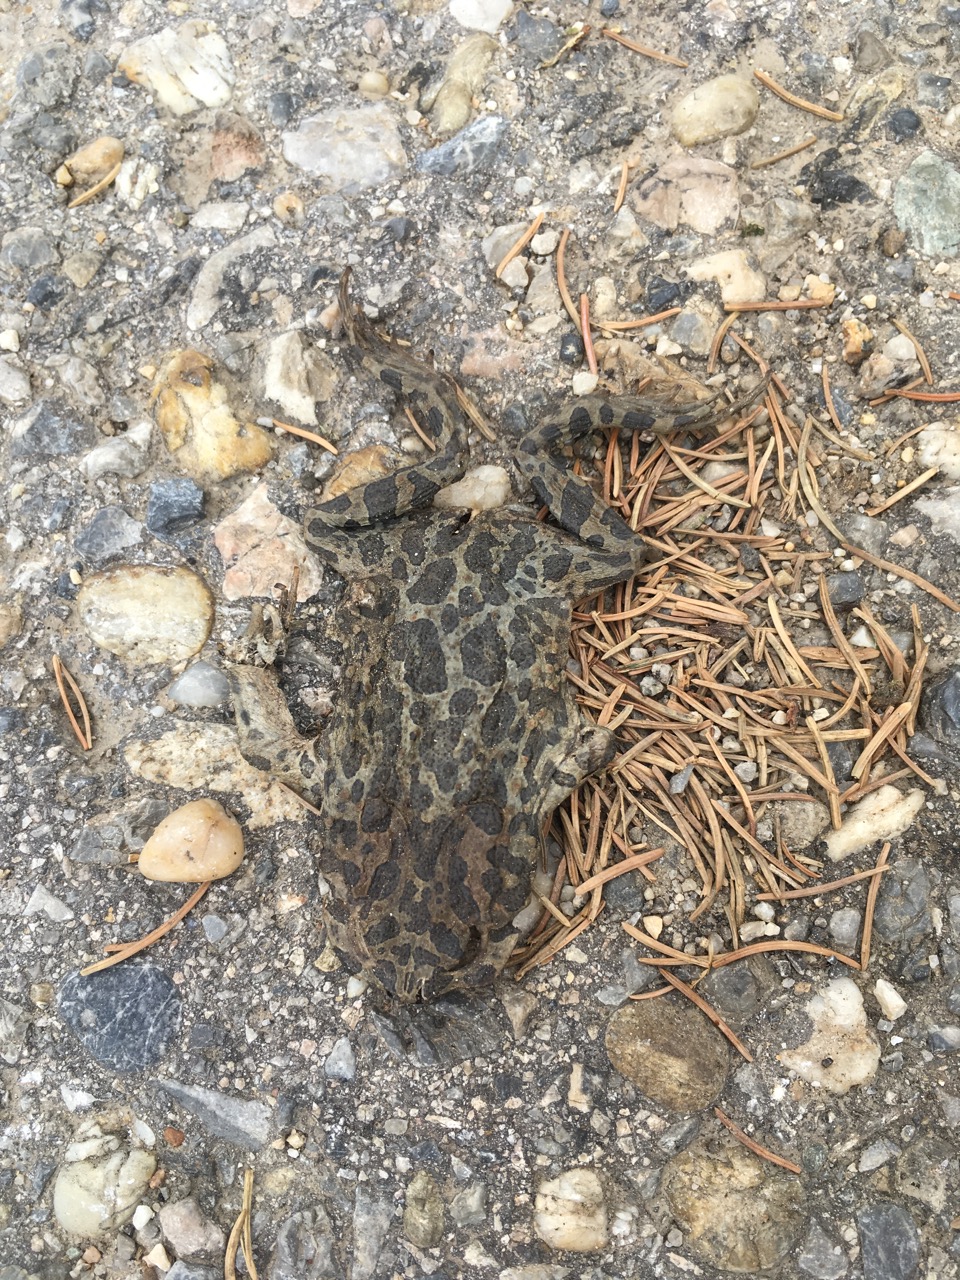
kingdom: Animalia
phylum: Chordata
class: Amphibia
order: Anura
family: Bufonidae
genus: Bufotes
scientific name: Bufotes viridis
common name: European green toad
